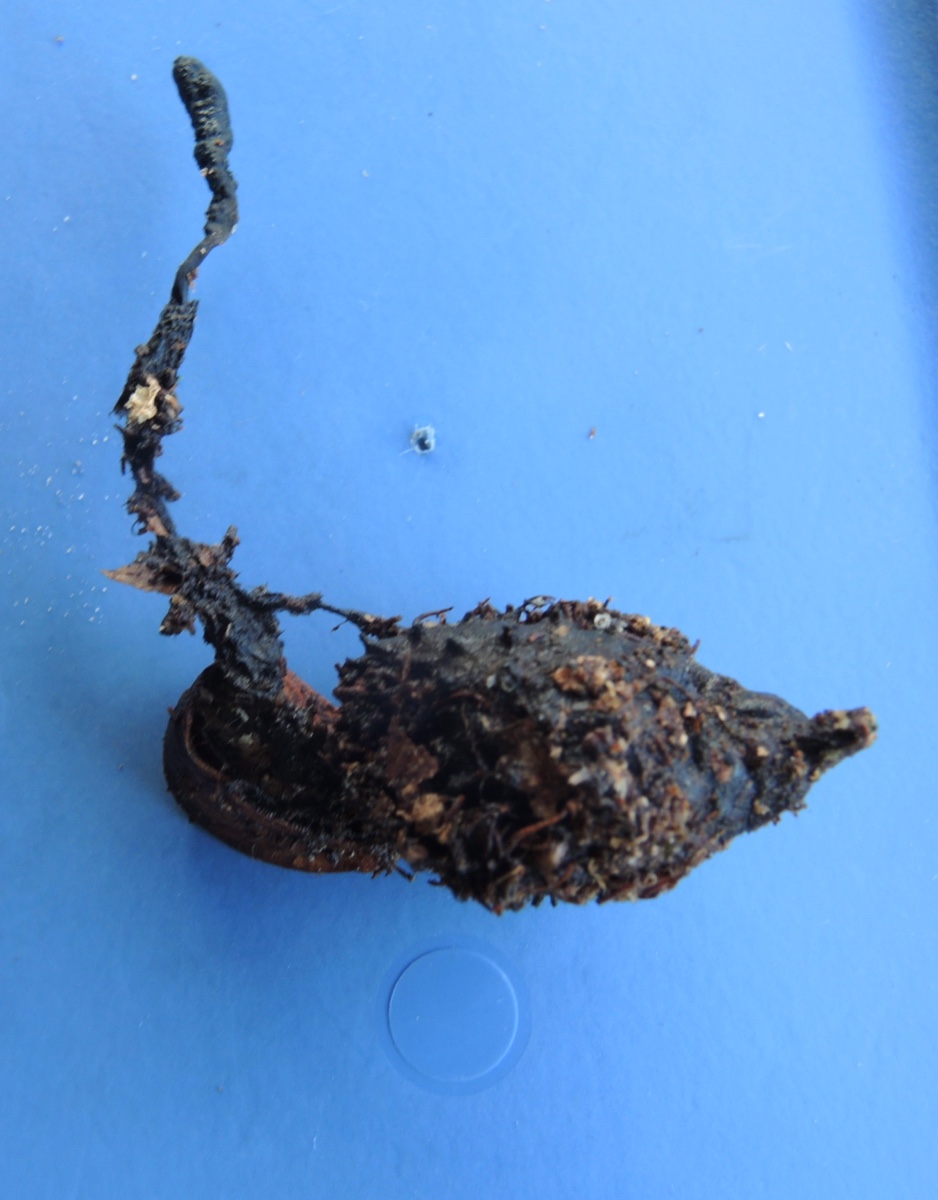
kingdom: Fungi
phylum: Ascomycota
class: Sordariomycetes
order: Xylariales
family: Xylariaceae
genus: Xylaria
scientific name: Xylaria carpophila
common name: bogskål-stødsvamp
